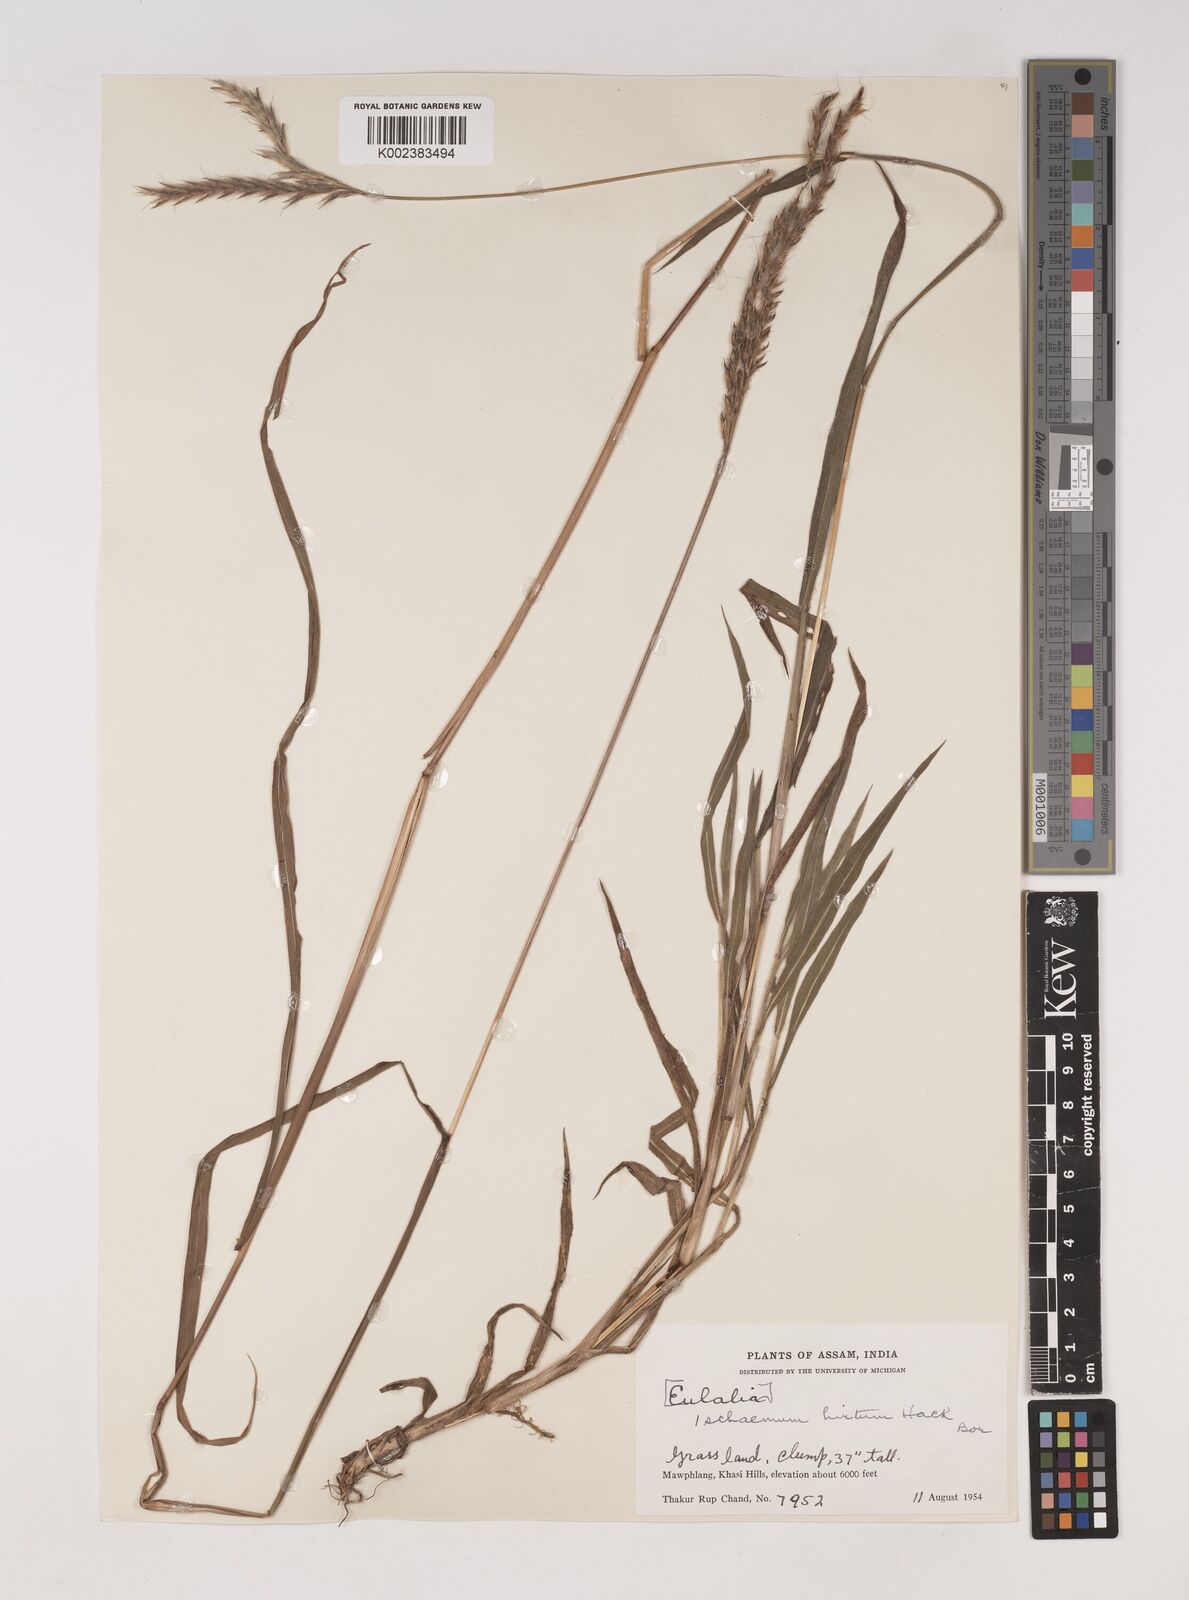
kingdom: Plantae
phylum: Tracheophyta
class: Liliopsida
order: Poales
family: Poaceae
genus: Ischaemum
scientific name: Ischaemum
